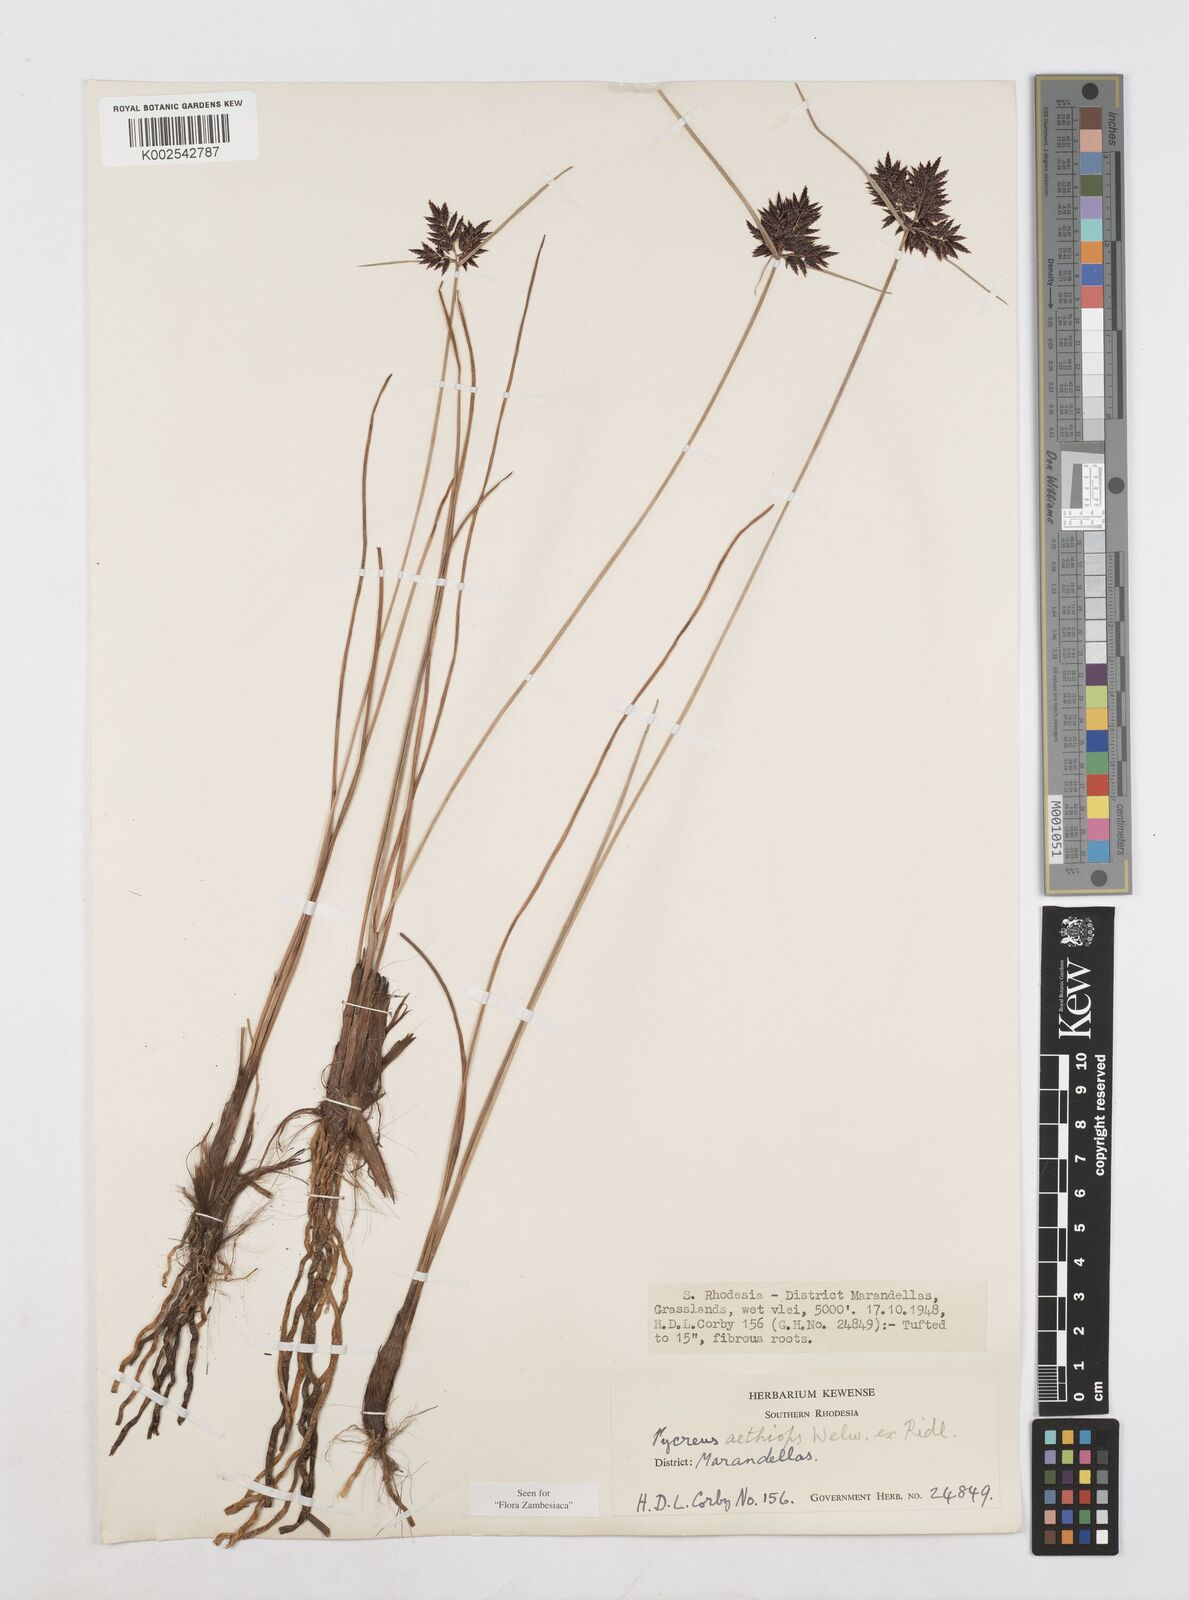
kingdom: Plantae
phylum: Tracheophyta
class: Liliopsida
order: Poales
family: Cyperaceae
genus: Cyperus
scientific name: Cyperus aethiops
